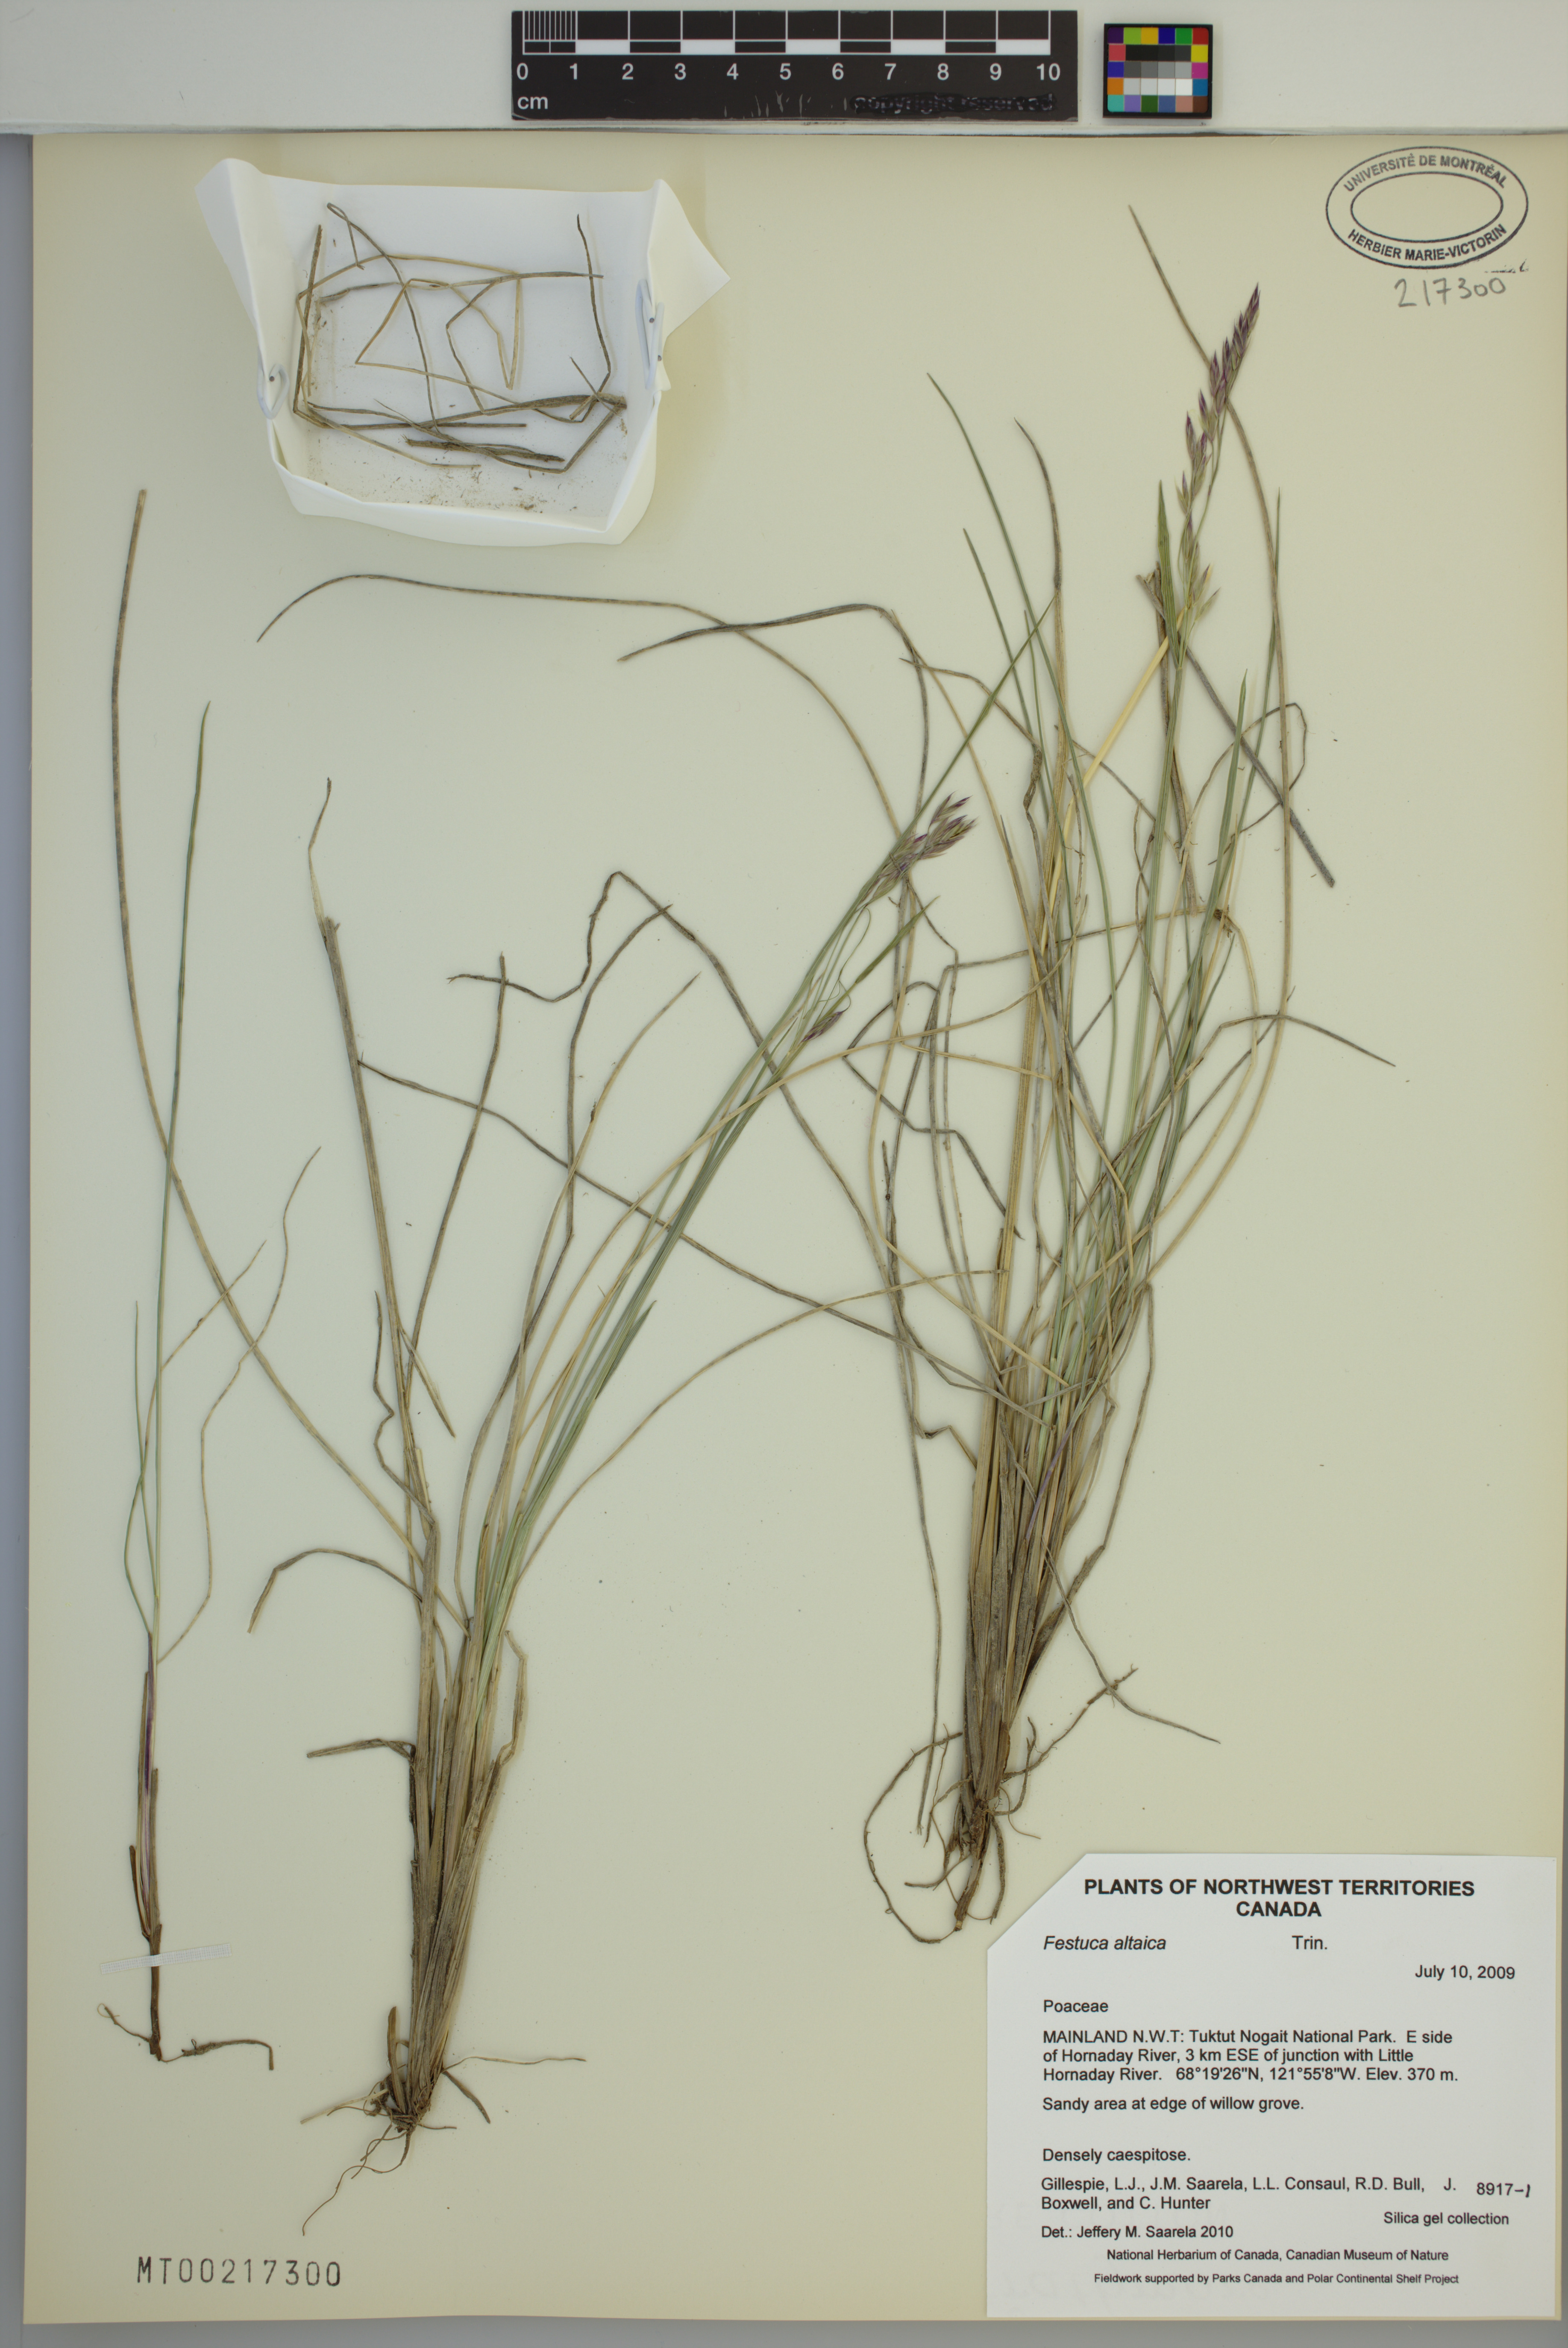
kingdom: Plantae
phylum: Tracheophyta
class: Liliopsida
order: Poales
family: Poaceae
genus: Festuca
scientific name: Festuca altaica
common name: Northern rough fescue
